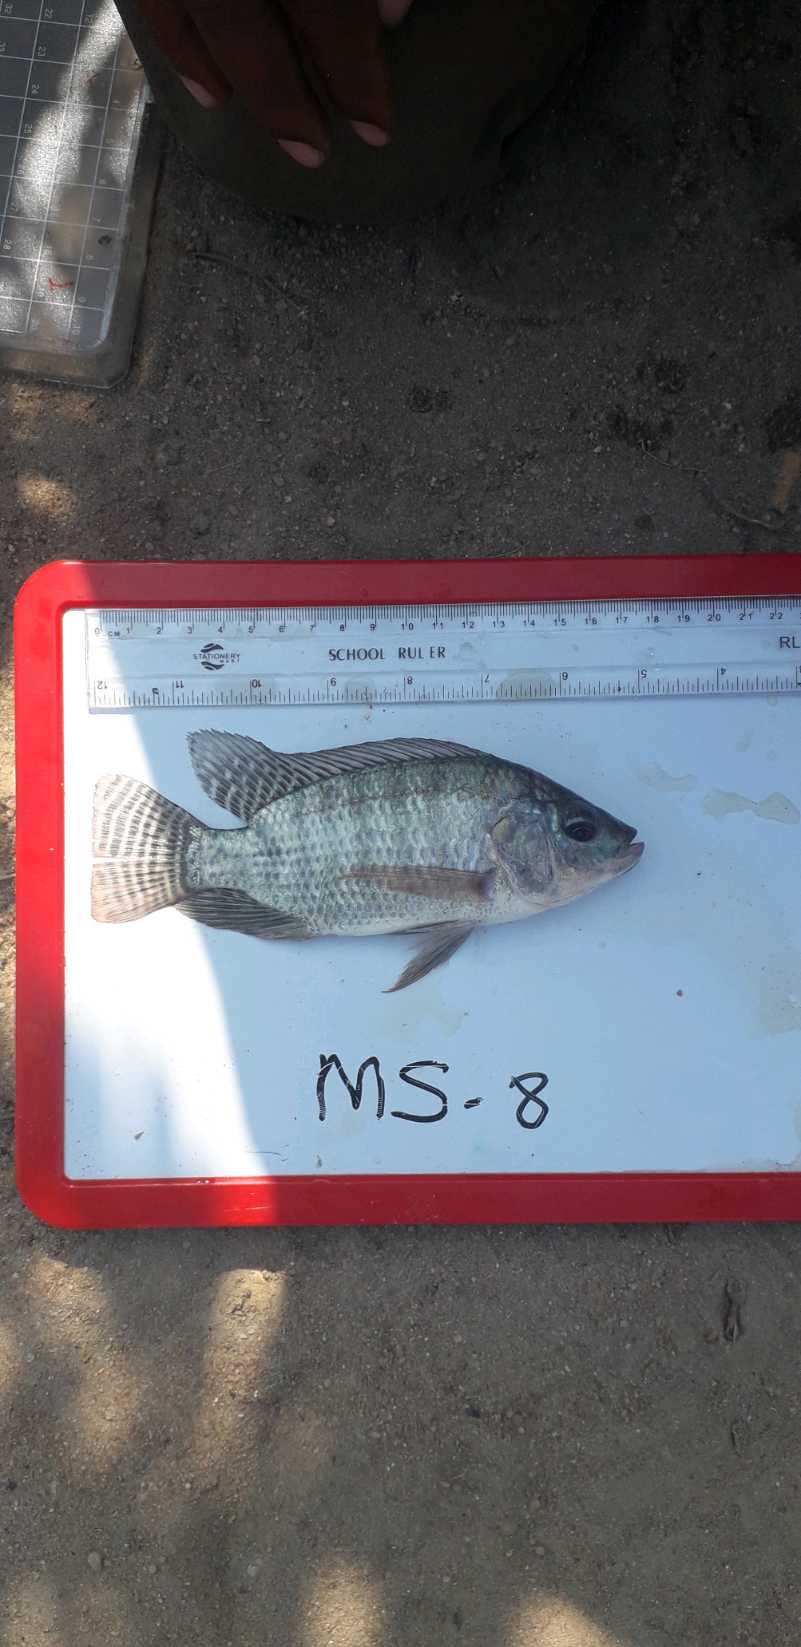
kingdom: Animalia
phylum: Chordata
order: Perciformes
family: Cichlidae
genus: Oreochromis
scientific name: Oreochromis niloticus
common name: Nile tilapia
